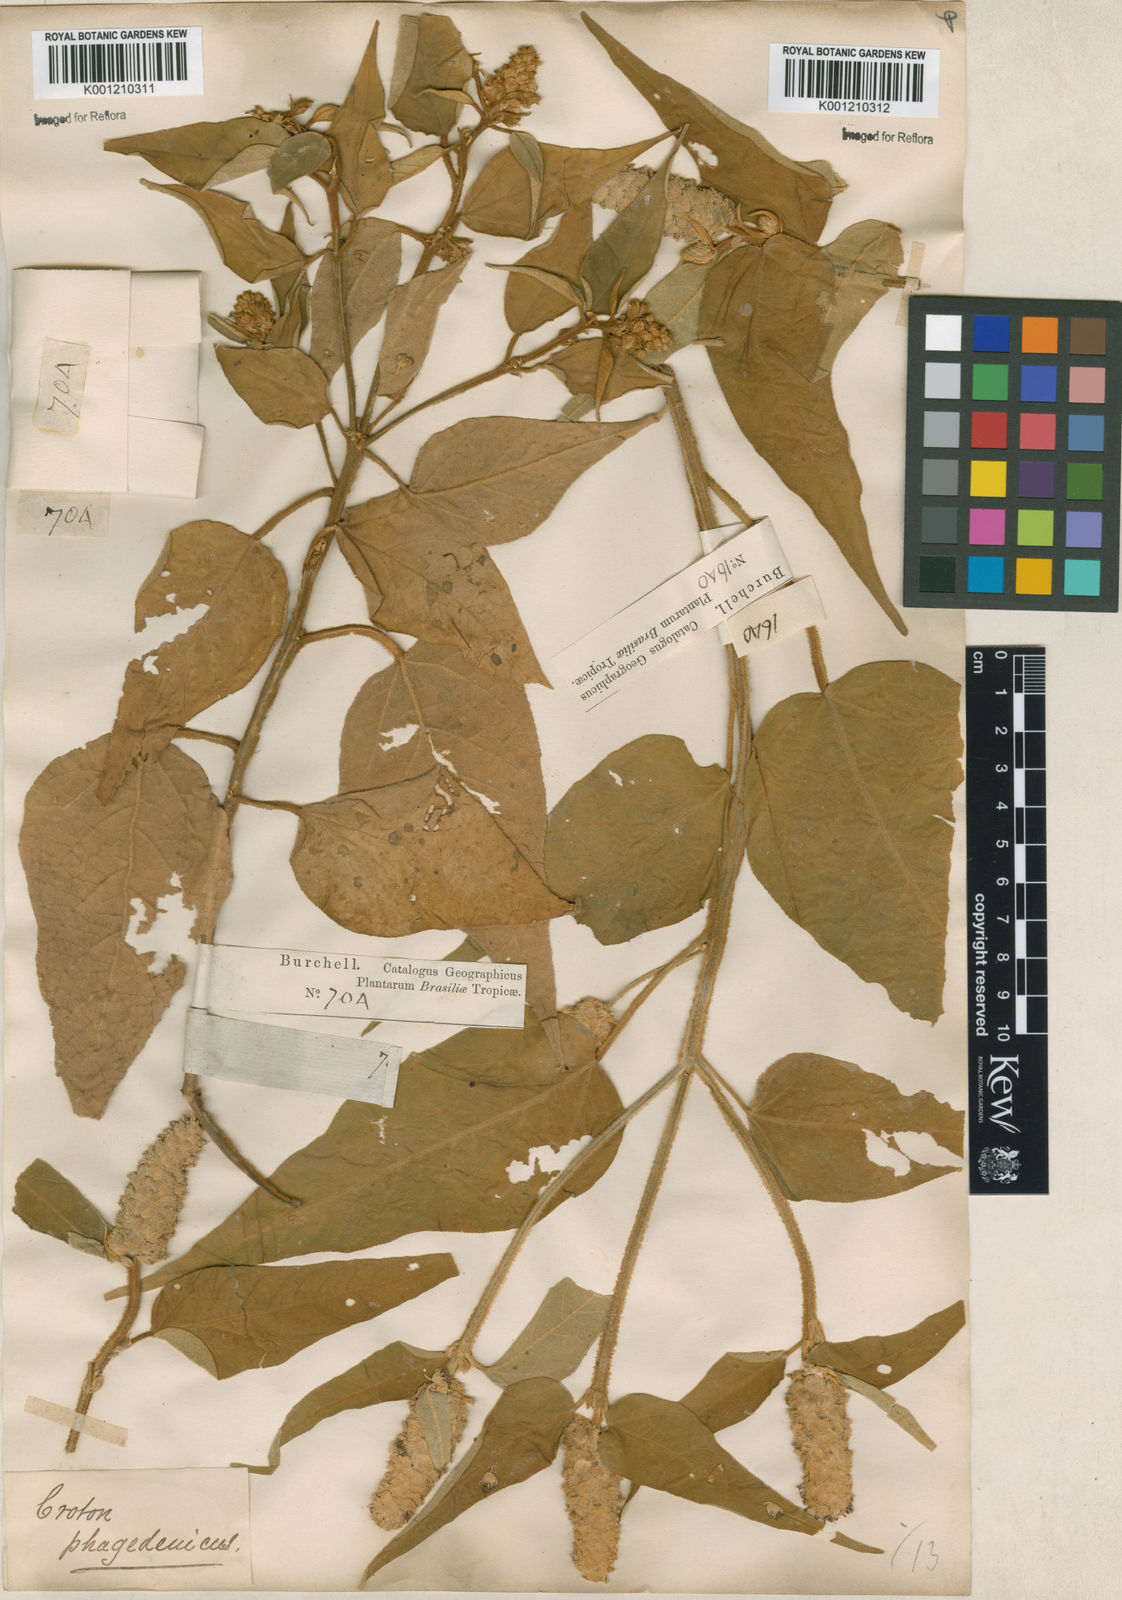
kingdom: Plantae
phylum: Tracheophyta
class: Magnoliopsida
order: Malpighiales
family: Euphorbiaceae
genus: Croton
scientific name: Croton triqueter
